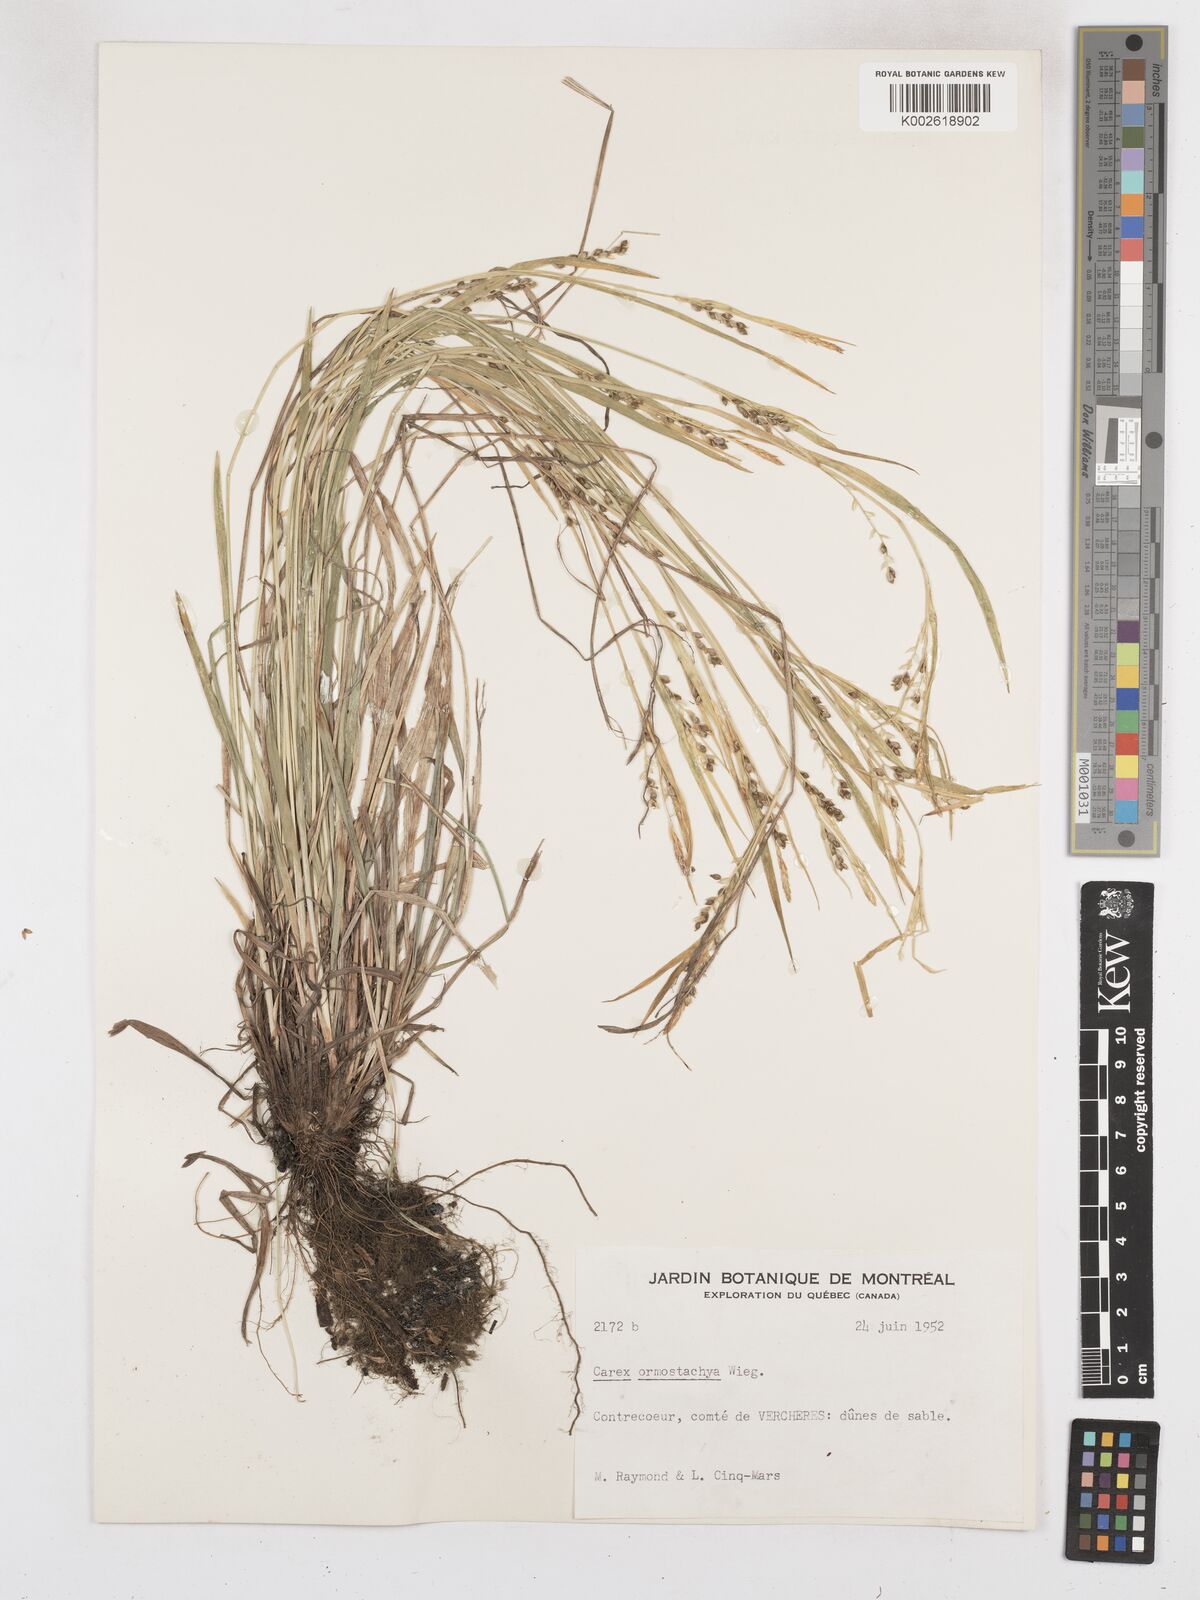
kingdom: Plantae
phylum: Tracheophyta
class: Liliopsida
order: Poales
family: Cyperaceae
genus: Carex
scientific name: Carex ormostachya
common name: Necklace spike sedge
